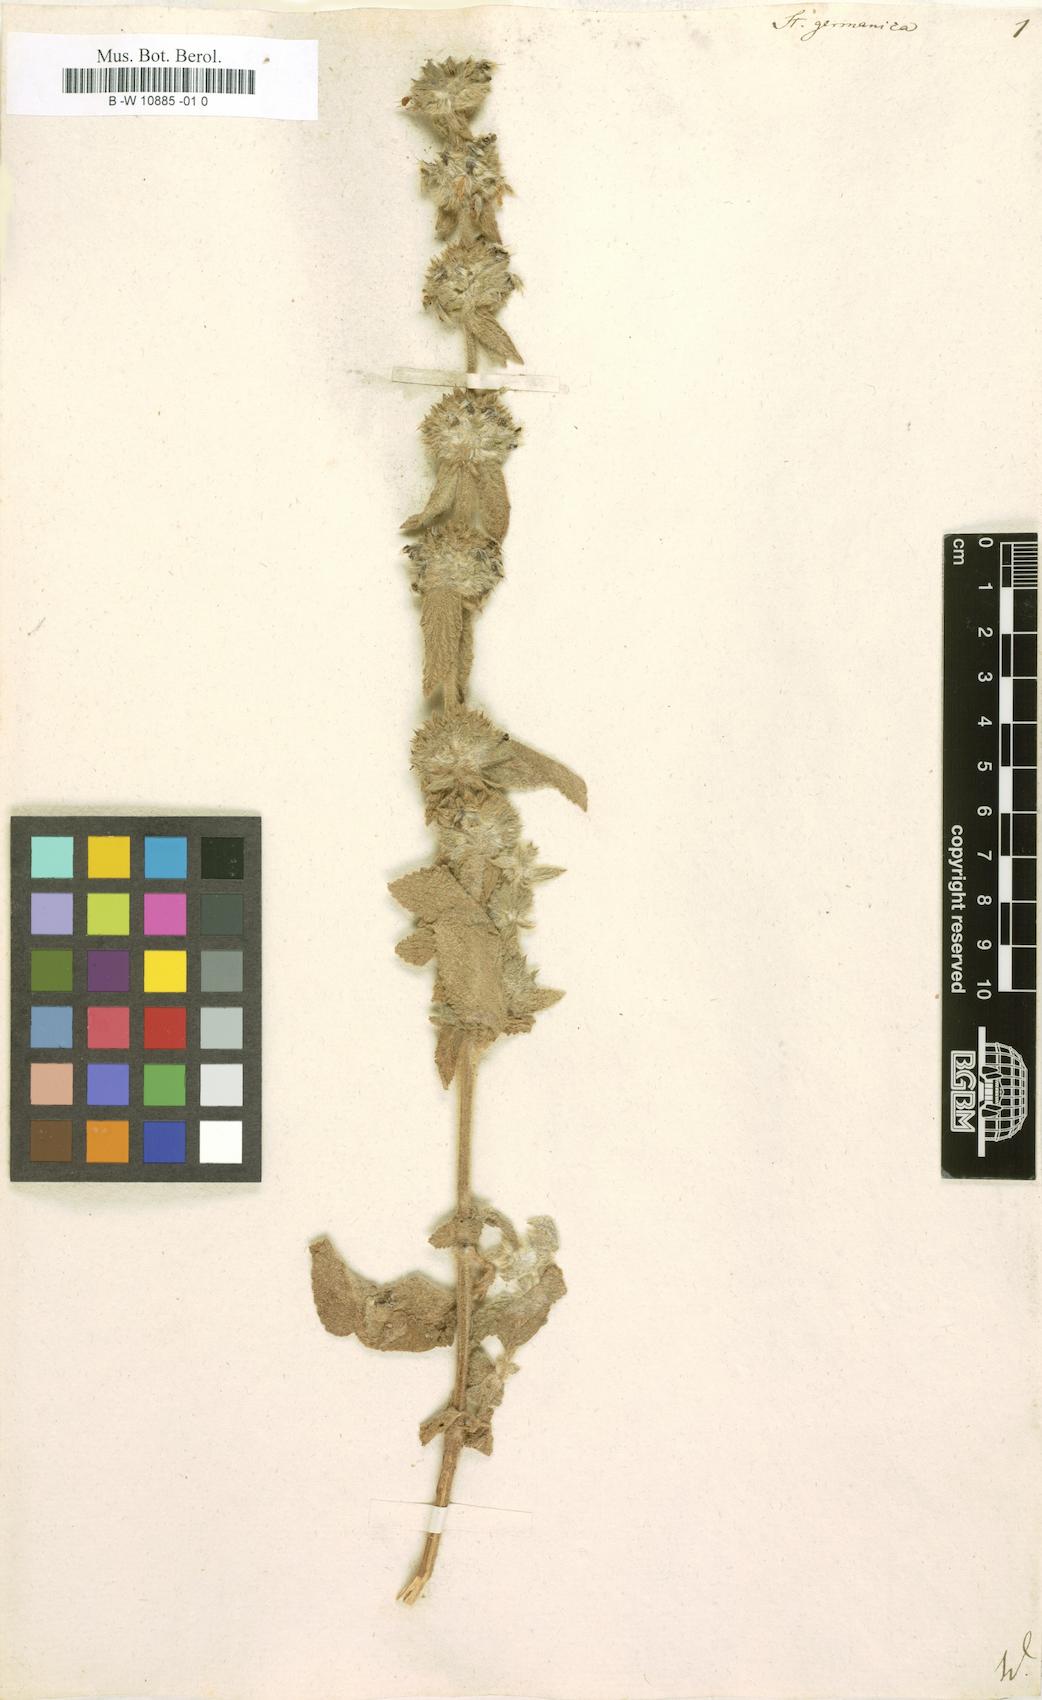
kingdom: Plantae
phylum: Tracheophyta
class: Magnoliopsida
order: Lamiales
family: Lamiaceae
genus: Stachys
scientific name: Stachys germanica
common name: Downy woundwort
